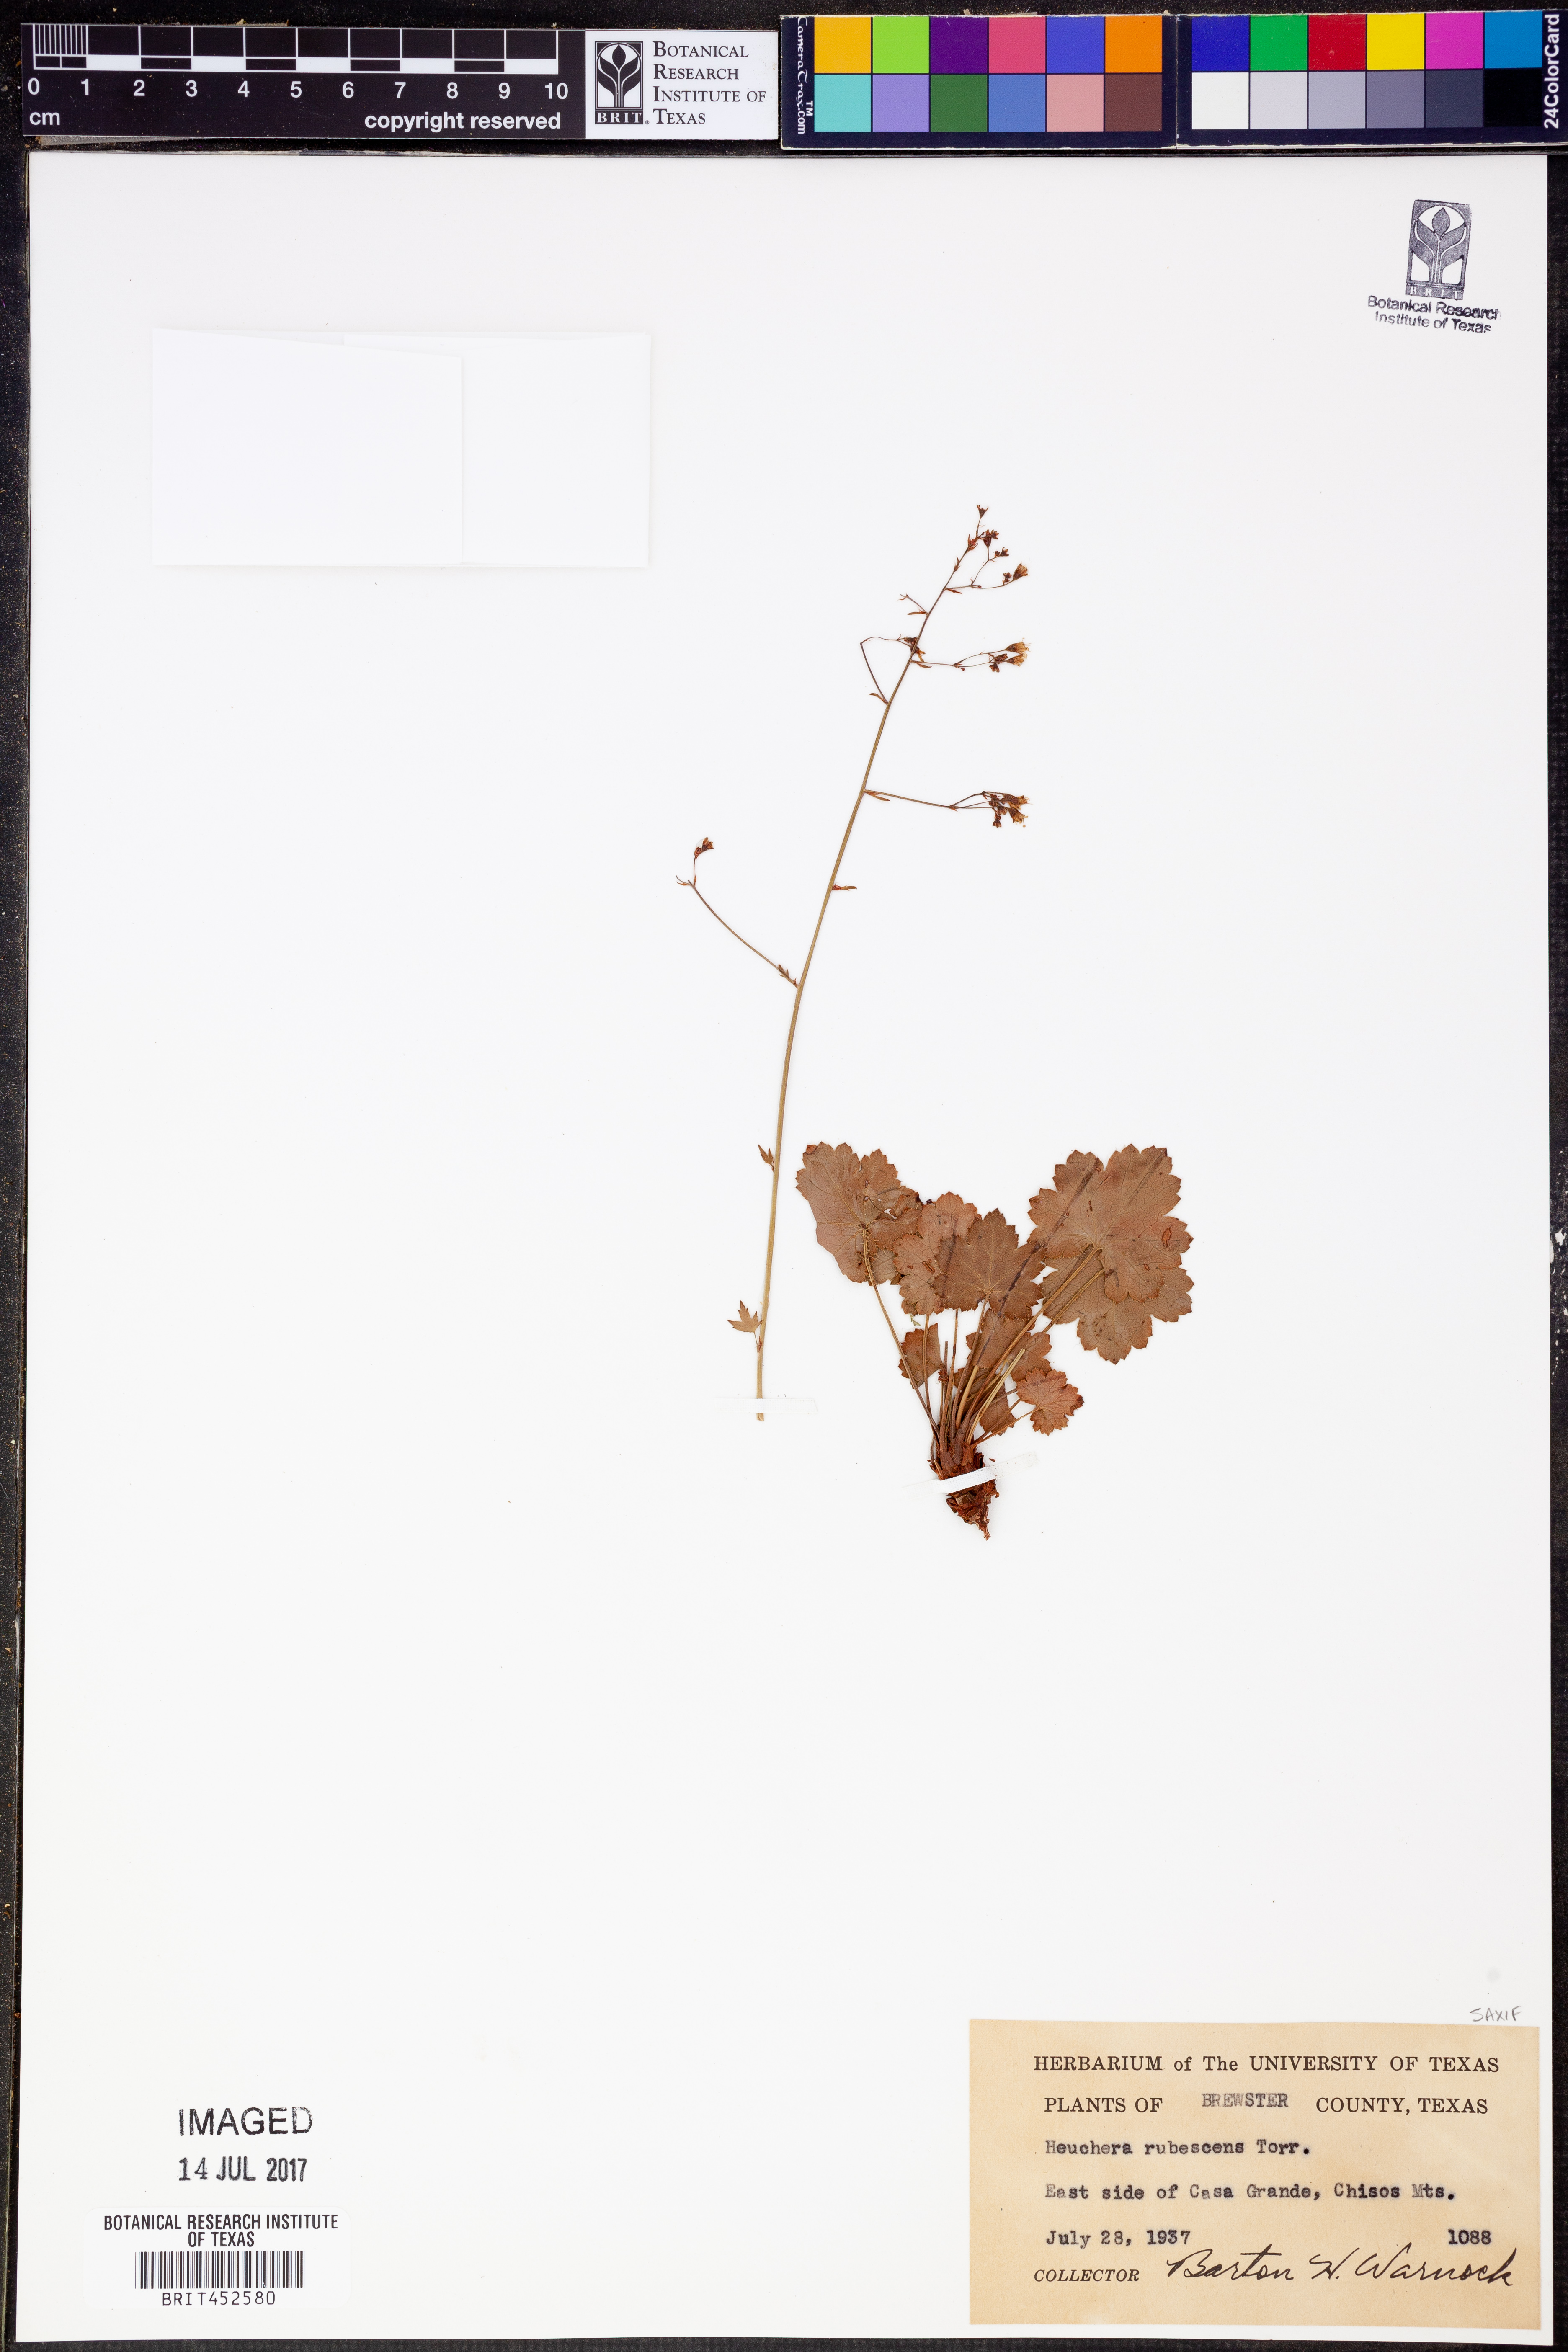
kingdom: Plantae
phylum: Tracheophyta
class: Magnoliopsida
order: Saxifragales
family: Saxifragaceae
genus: Heuchera
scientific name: Heuchera rubescens
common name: Jack-o'the-rocks
